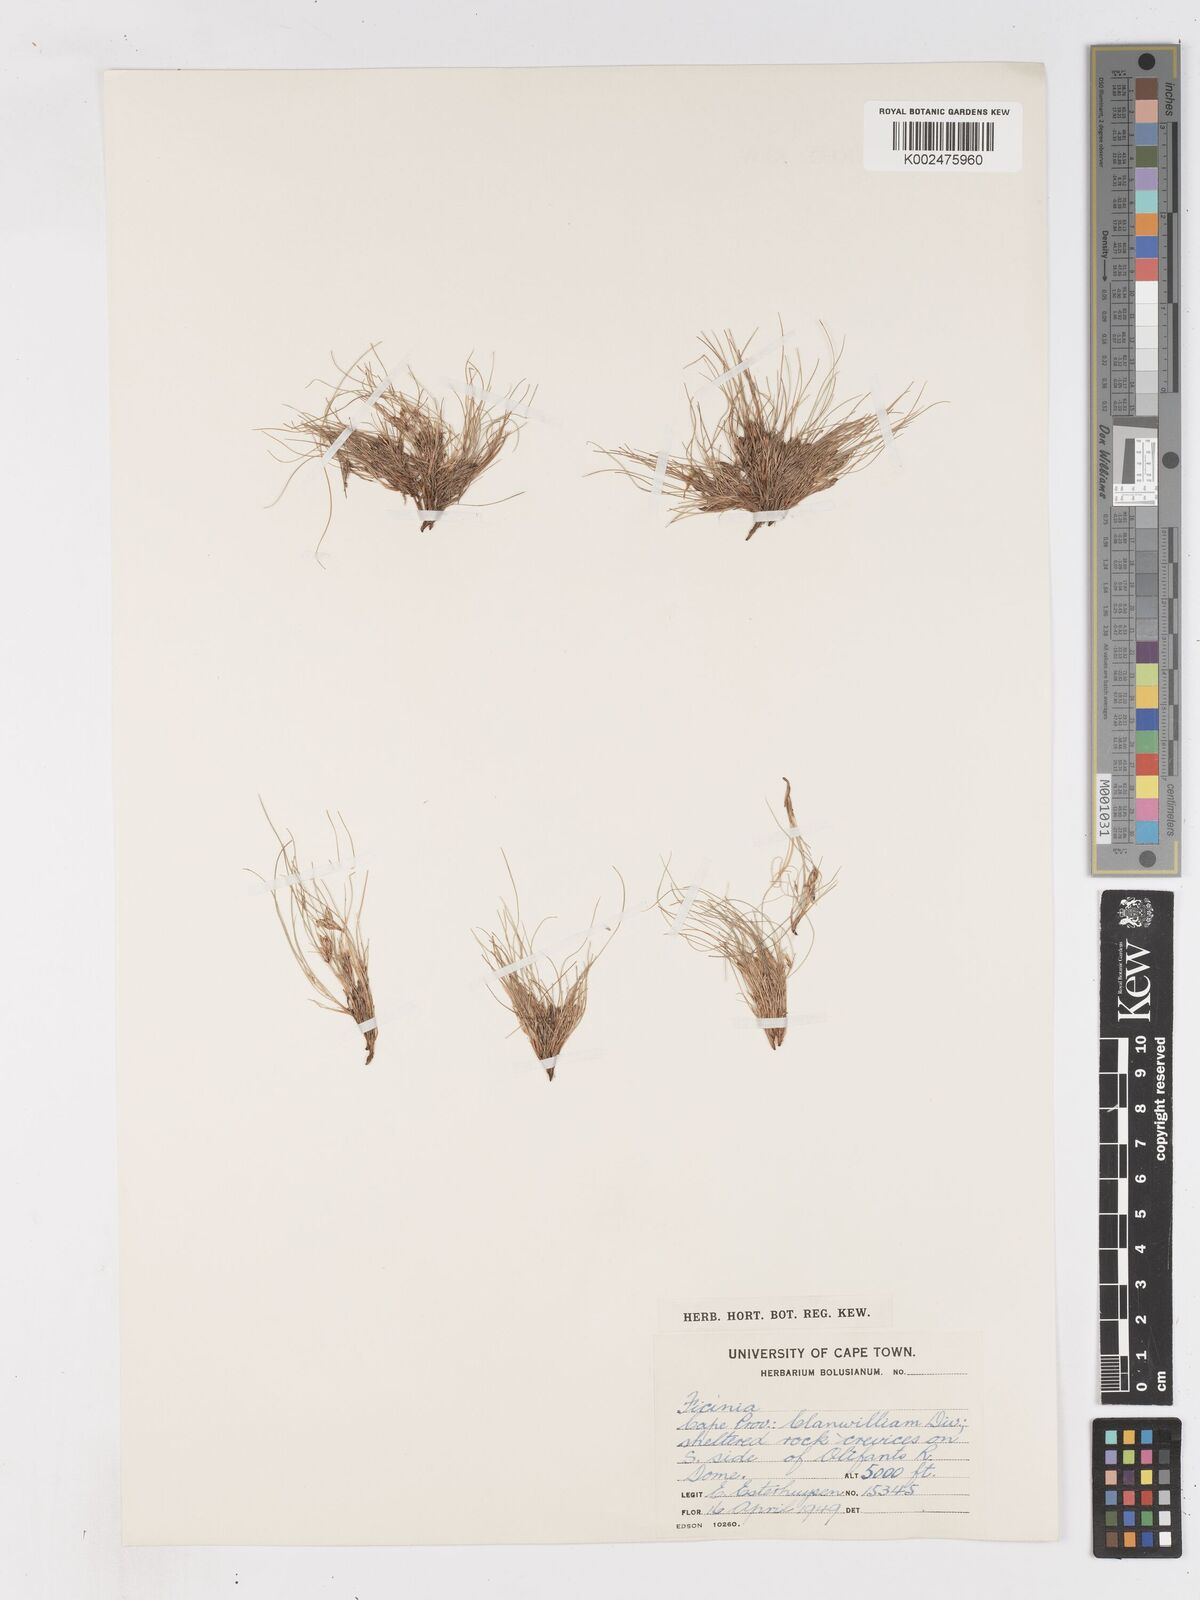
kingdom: Plantae
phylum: Tracheophyta
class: Liliopsida
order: Poales
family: Cyperaceae
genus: Ficinia
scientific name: Ficinia esterhuyseniae
